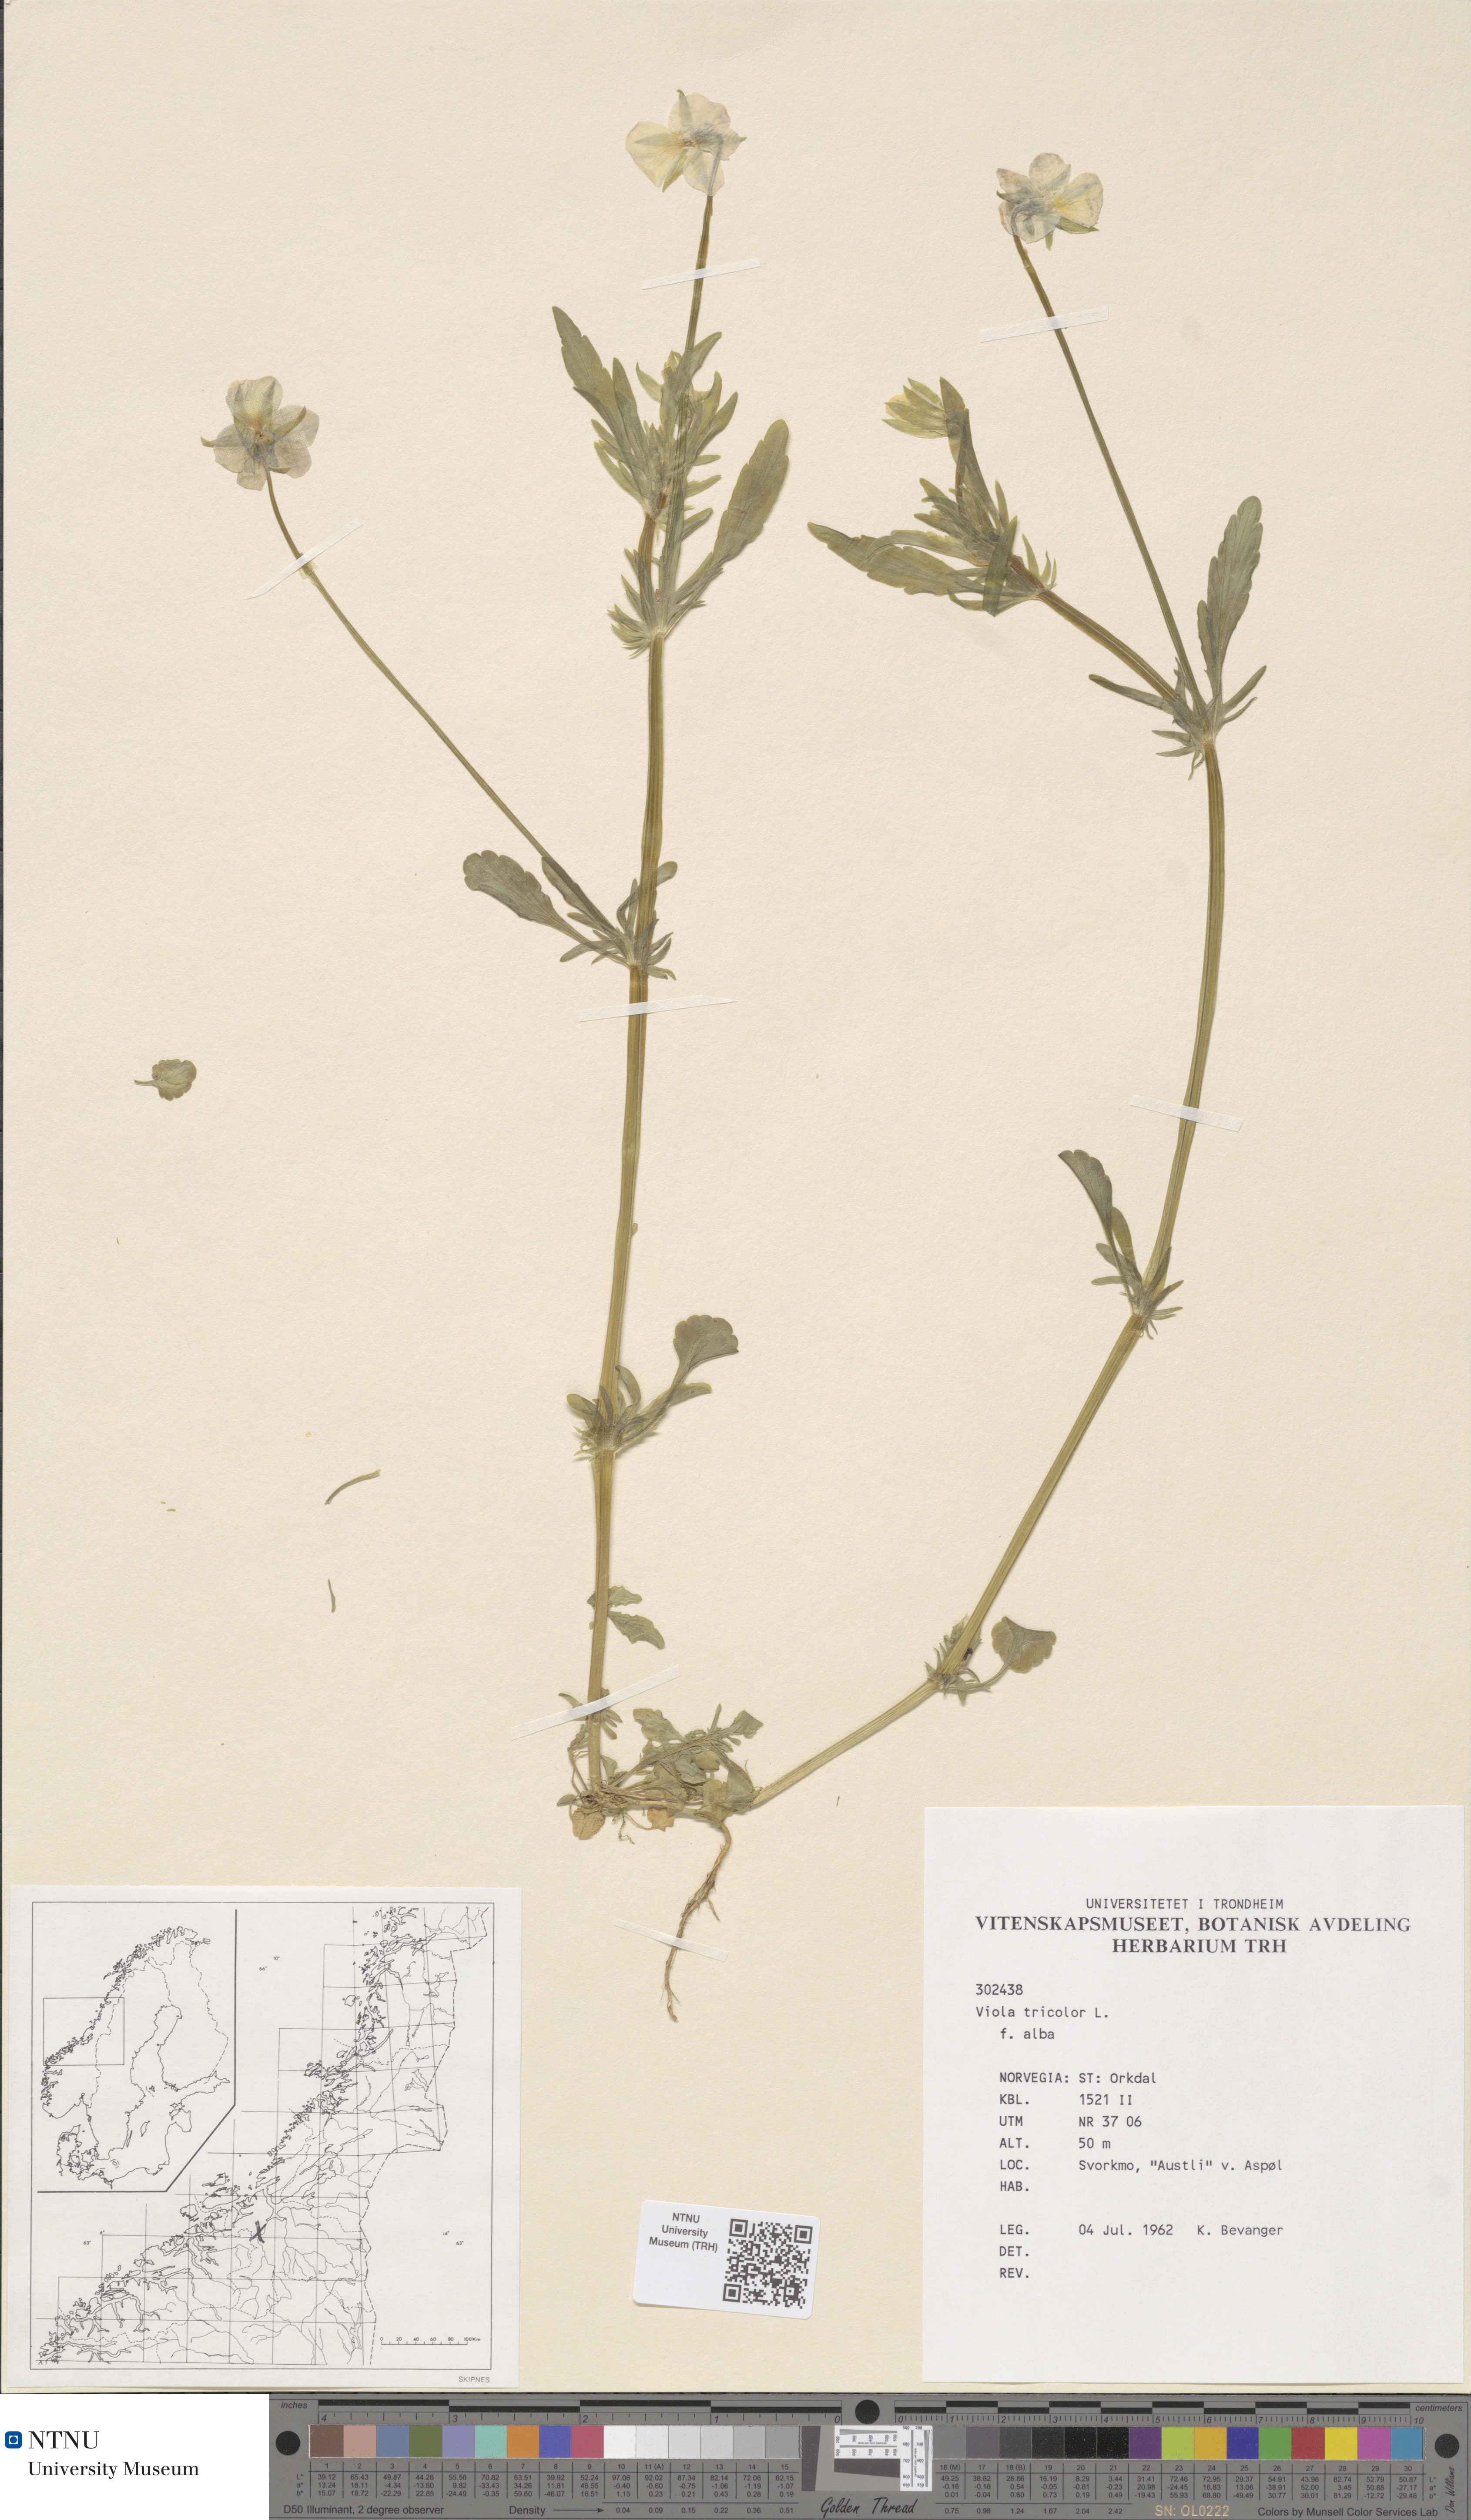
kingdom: Plantae
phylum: Tracheophyta
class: Magnoliopsida
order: Malpighiales
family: Violaceae
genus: Viola
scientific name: Viola tricolor
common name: Pansy
